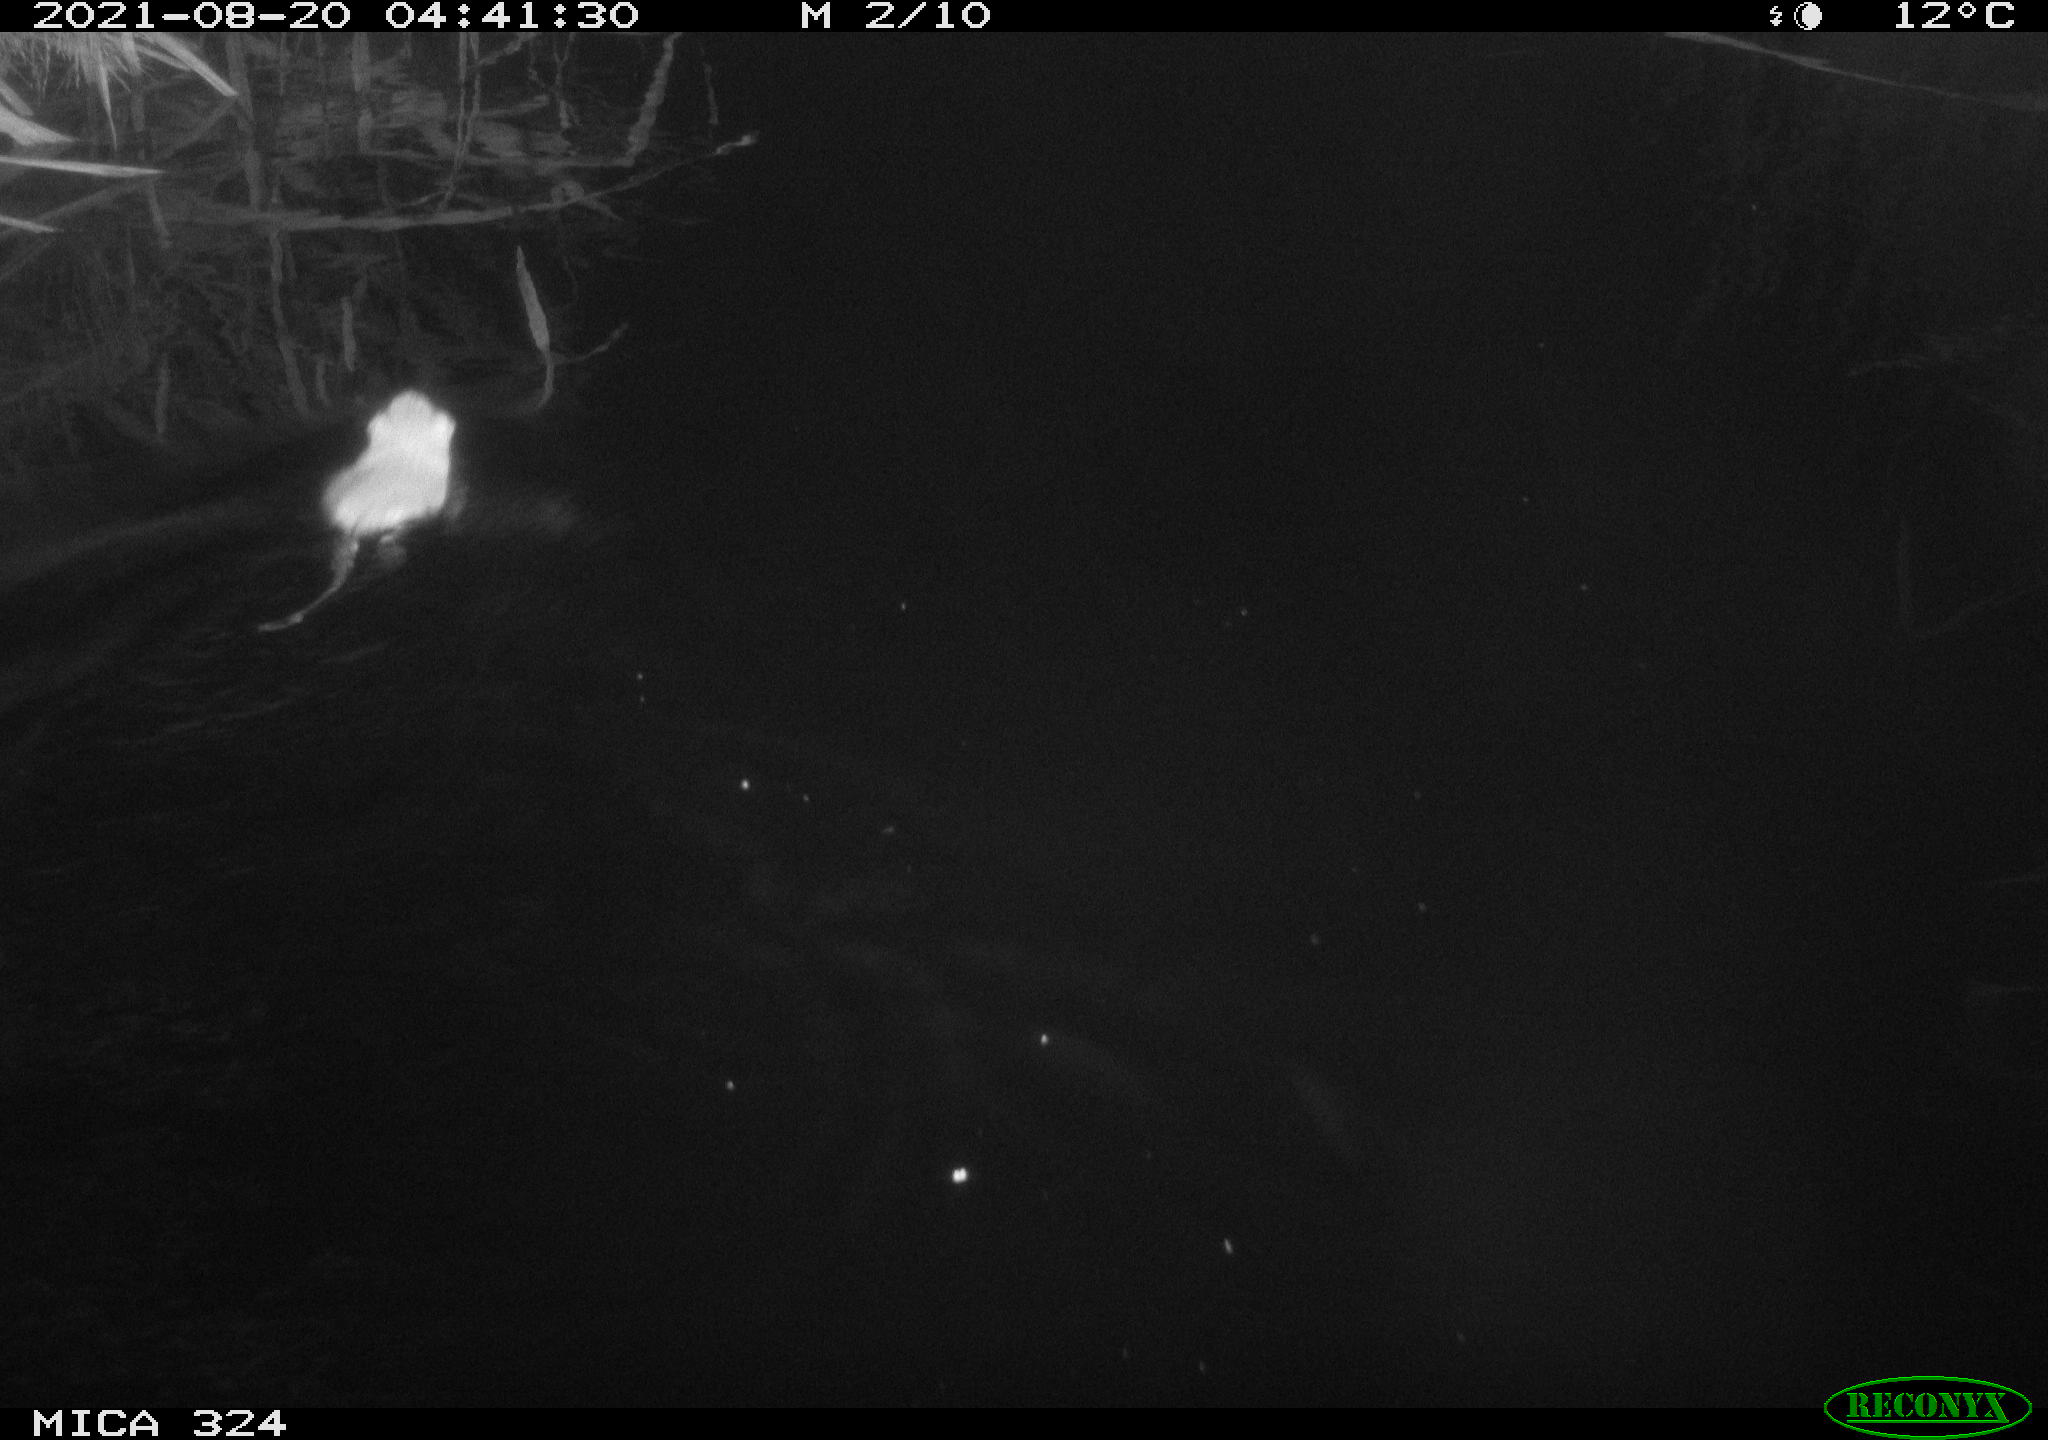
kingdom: Animalia
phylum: Chordata
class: Mammalia
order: Rodentia
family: Cricetidae
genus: Ondatra
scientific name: Ondatra zibethicus
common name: Muskrat
